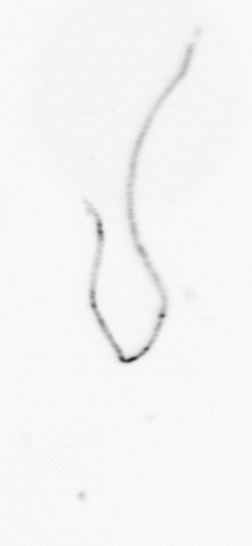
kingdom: Chromista
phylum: Ochrophyta
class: Bacillariophyceae
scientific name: Bacillariophyceae
